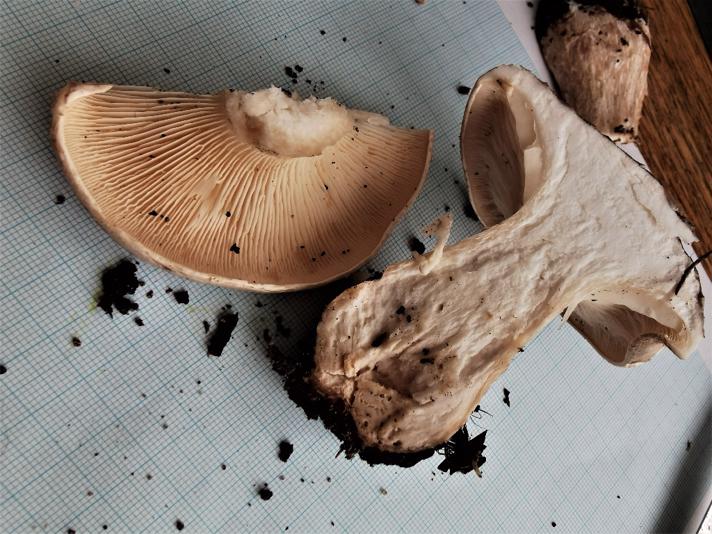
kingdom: Fungi
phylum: Basidiomycota
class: Agaricomycetes
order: Agaricales
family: Tricholomataceae
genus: Clitocybe
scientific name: Clitocybe nebularis
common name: tåge-tragthat
